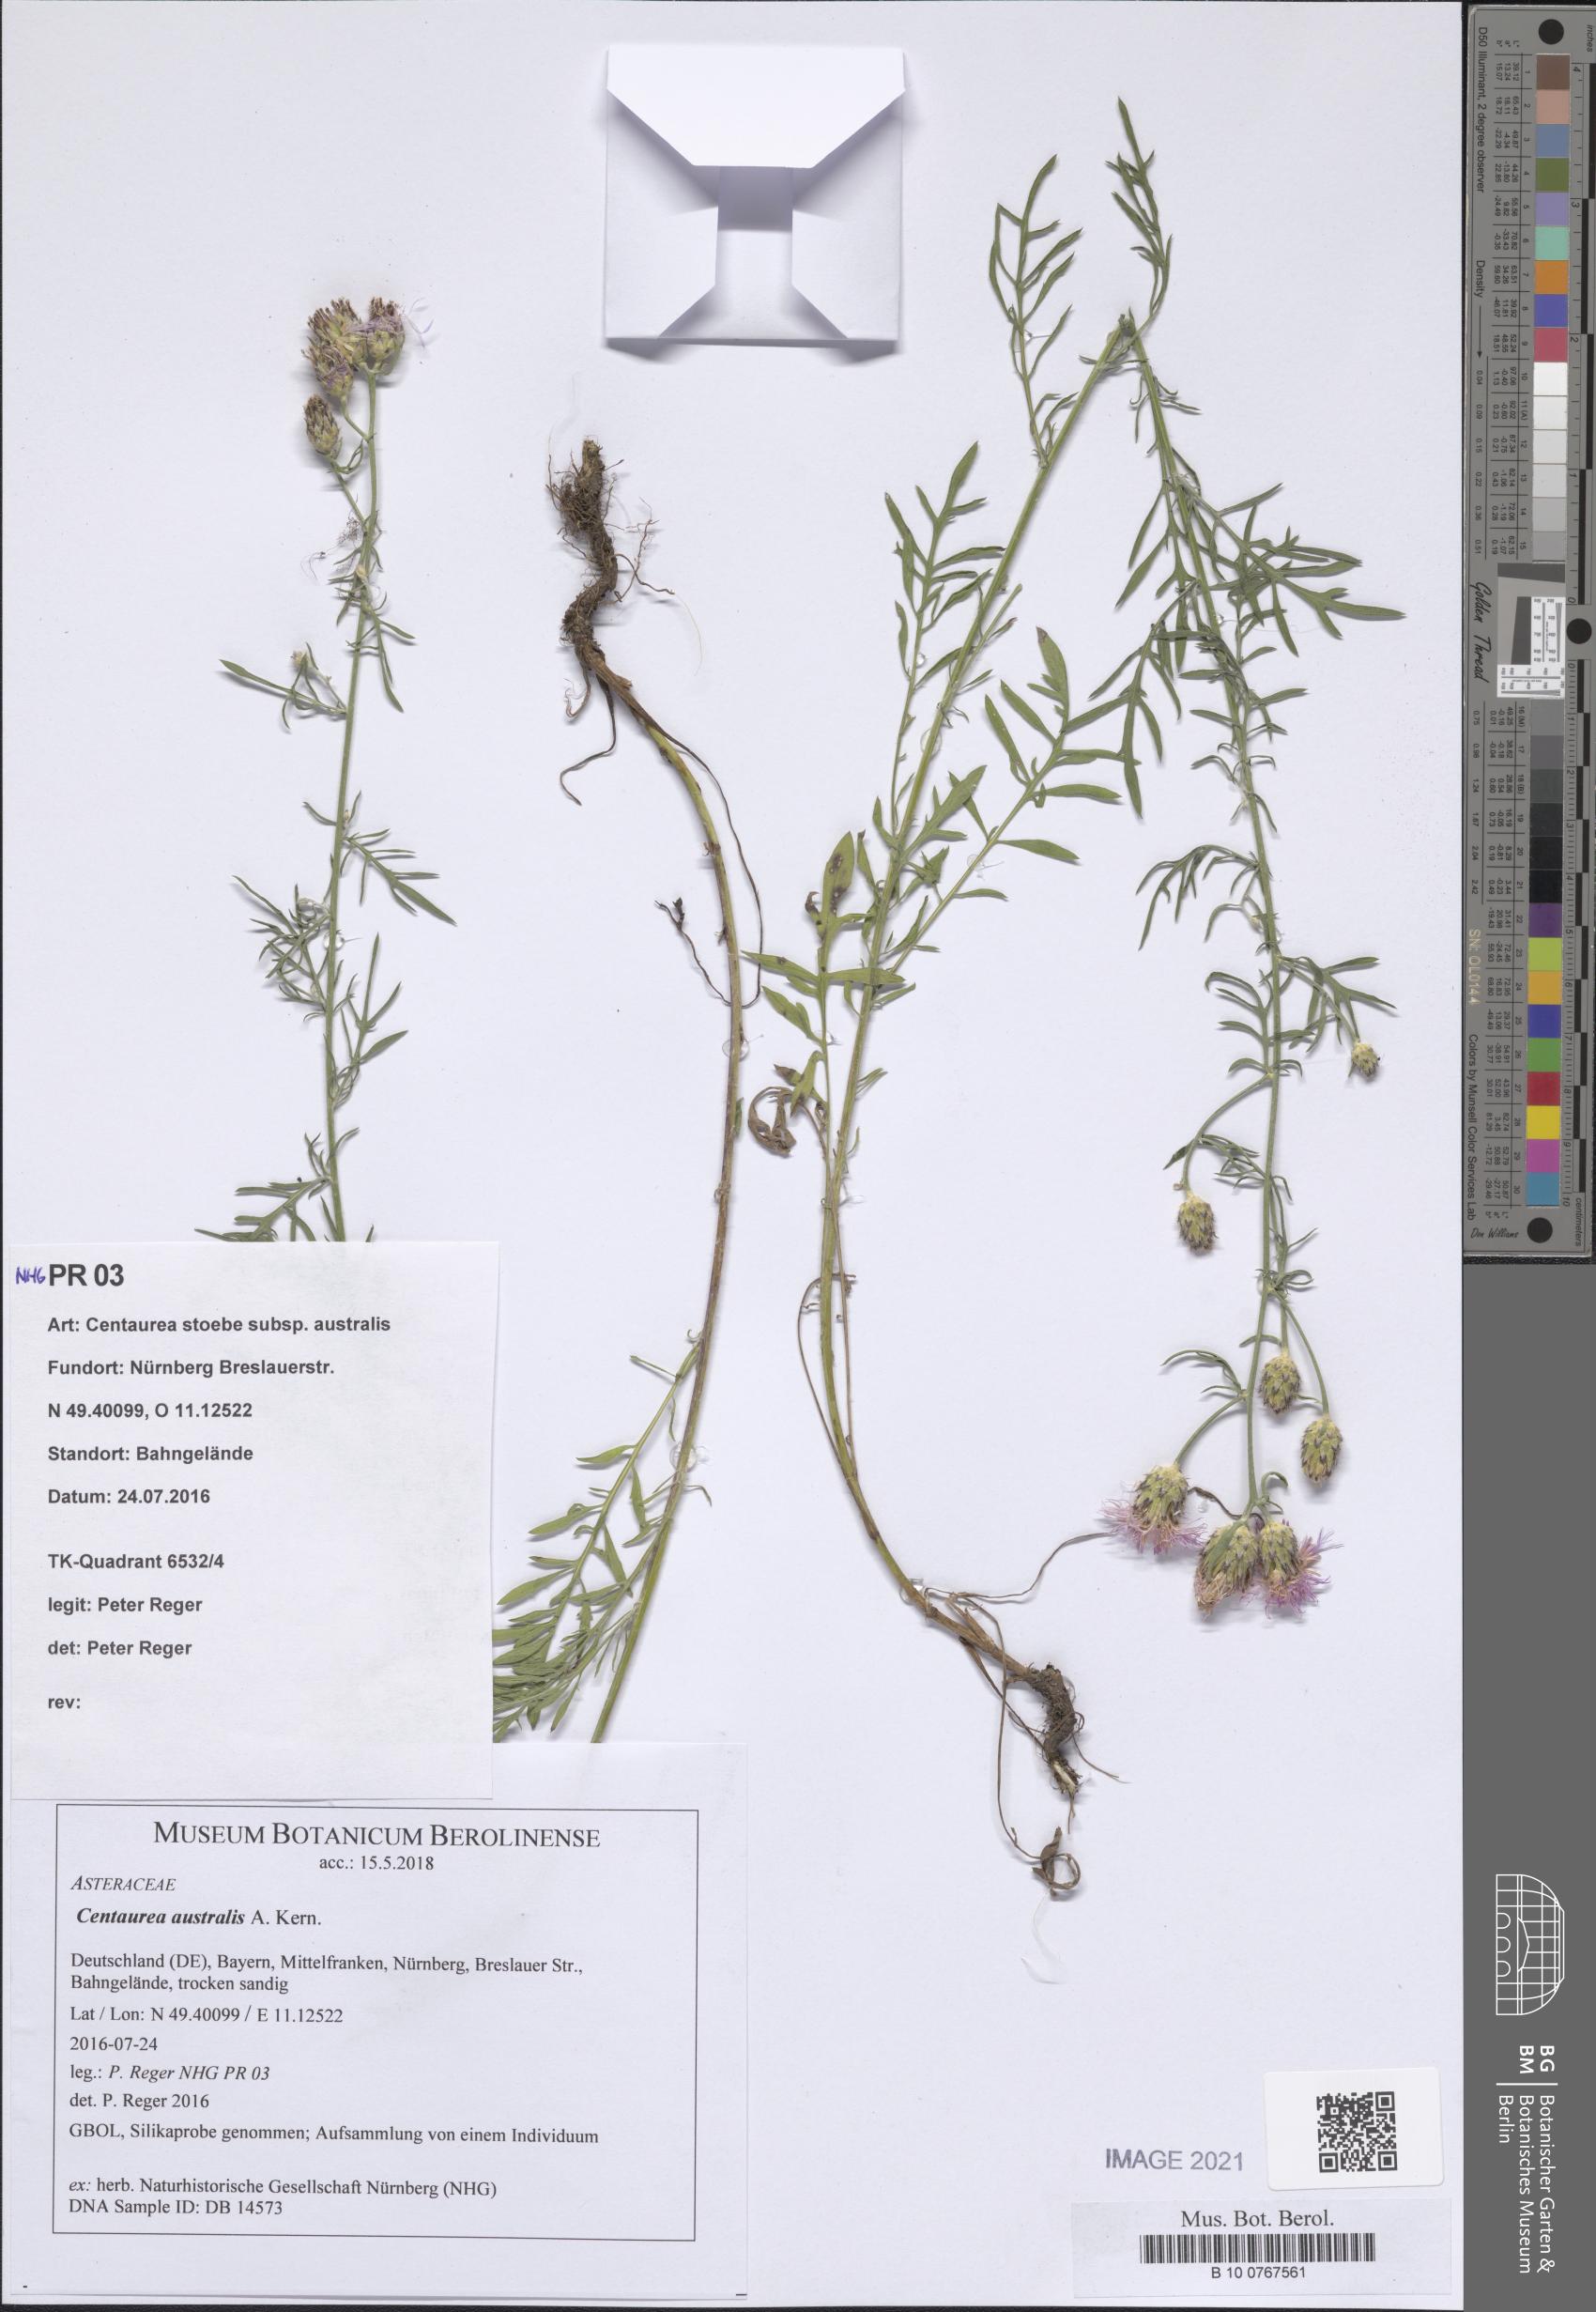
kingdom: Plantae
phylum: Tracheophyta
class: Magnoliopsida
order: Asterales
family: Asteraceae
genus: Centaurea
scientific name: Centaurea australis
